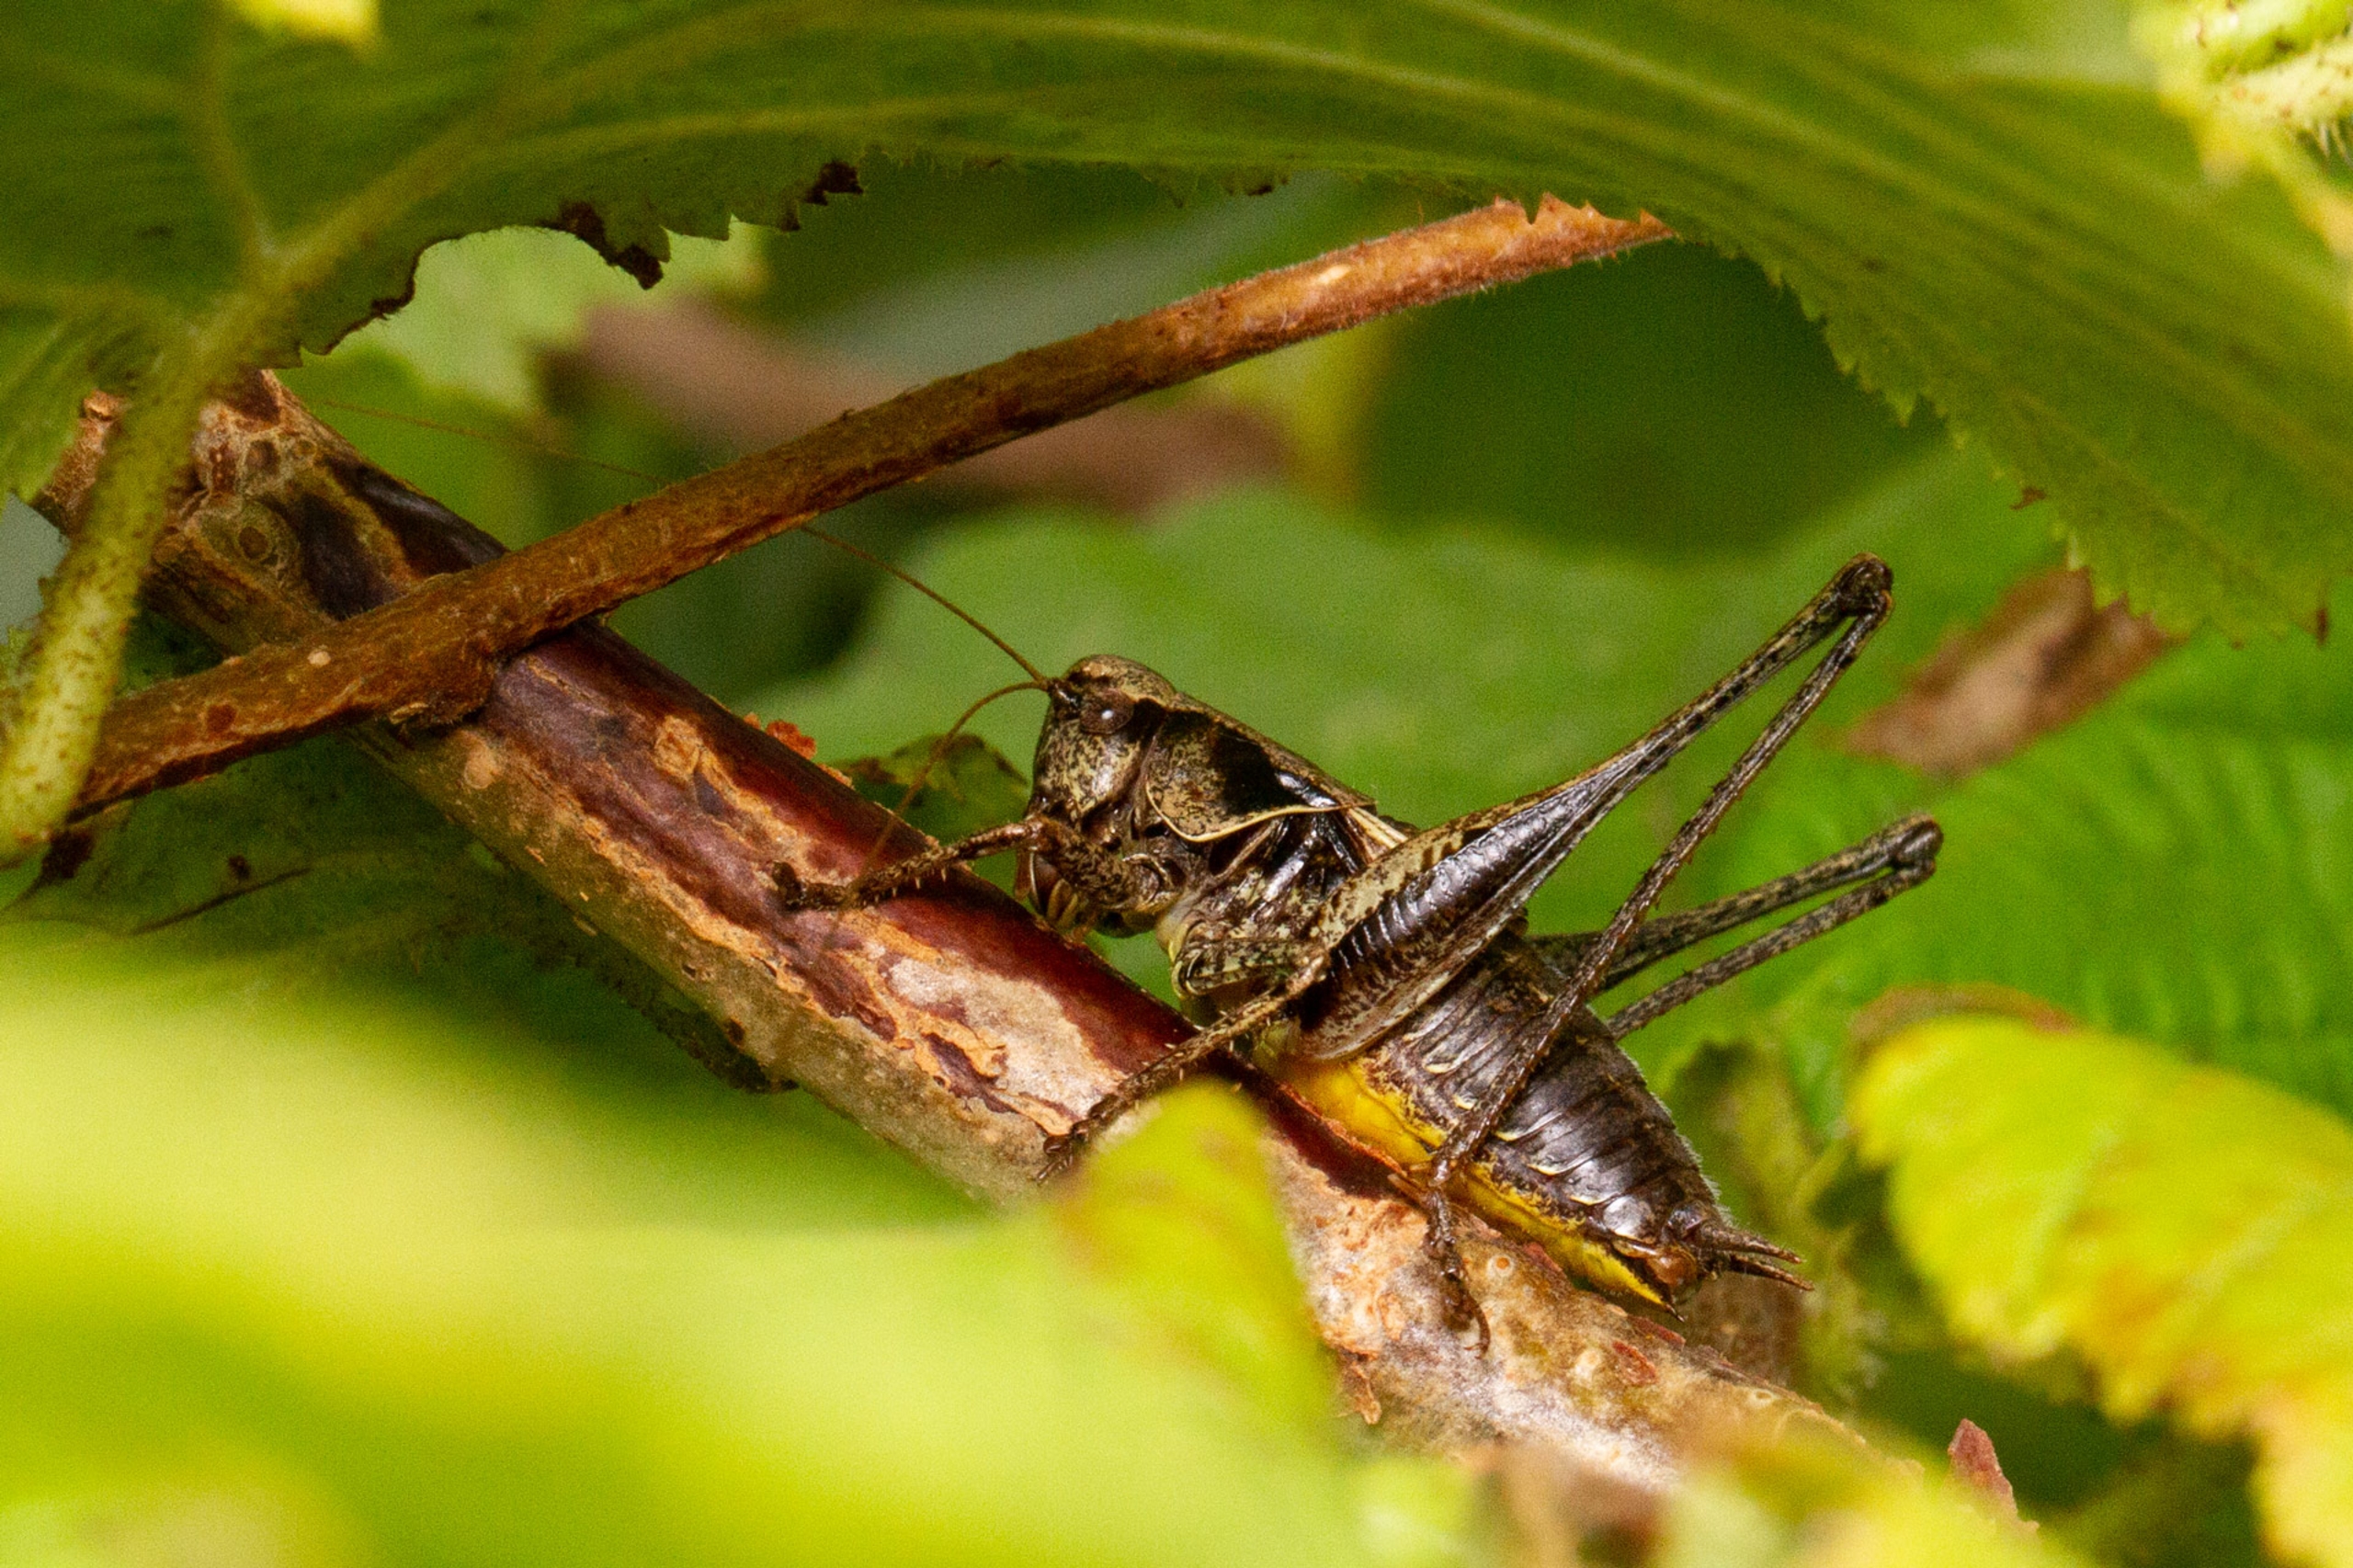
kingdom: Animalia
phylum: Arthropoda
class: Insecta
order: Orthoptera
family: Tettigoniidae
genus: Pholidoptera
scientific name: Pholidoptera griseoaptera
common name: Buskgræshoppe
